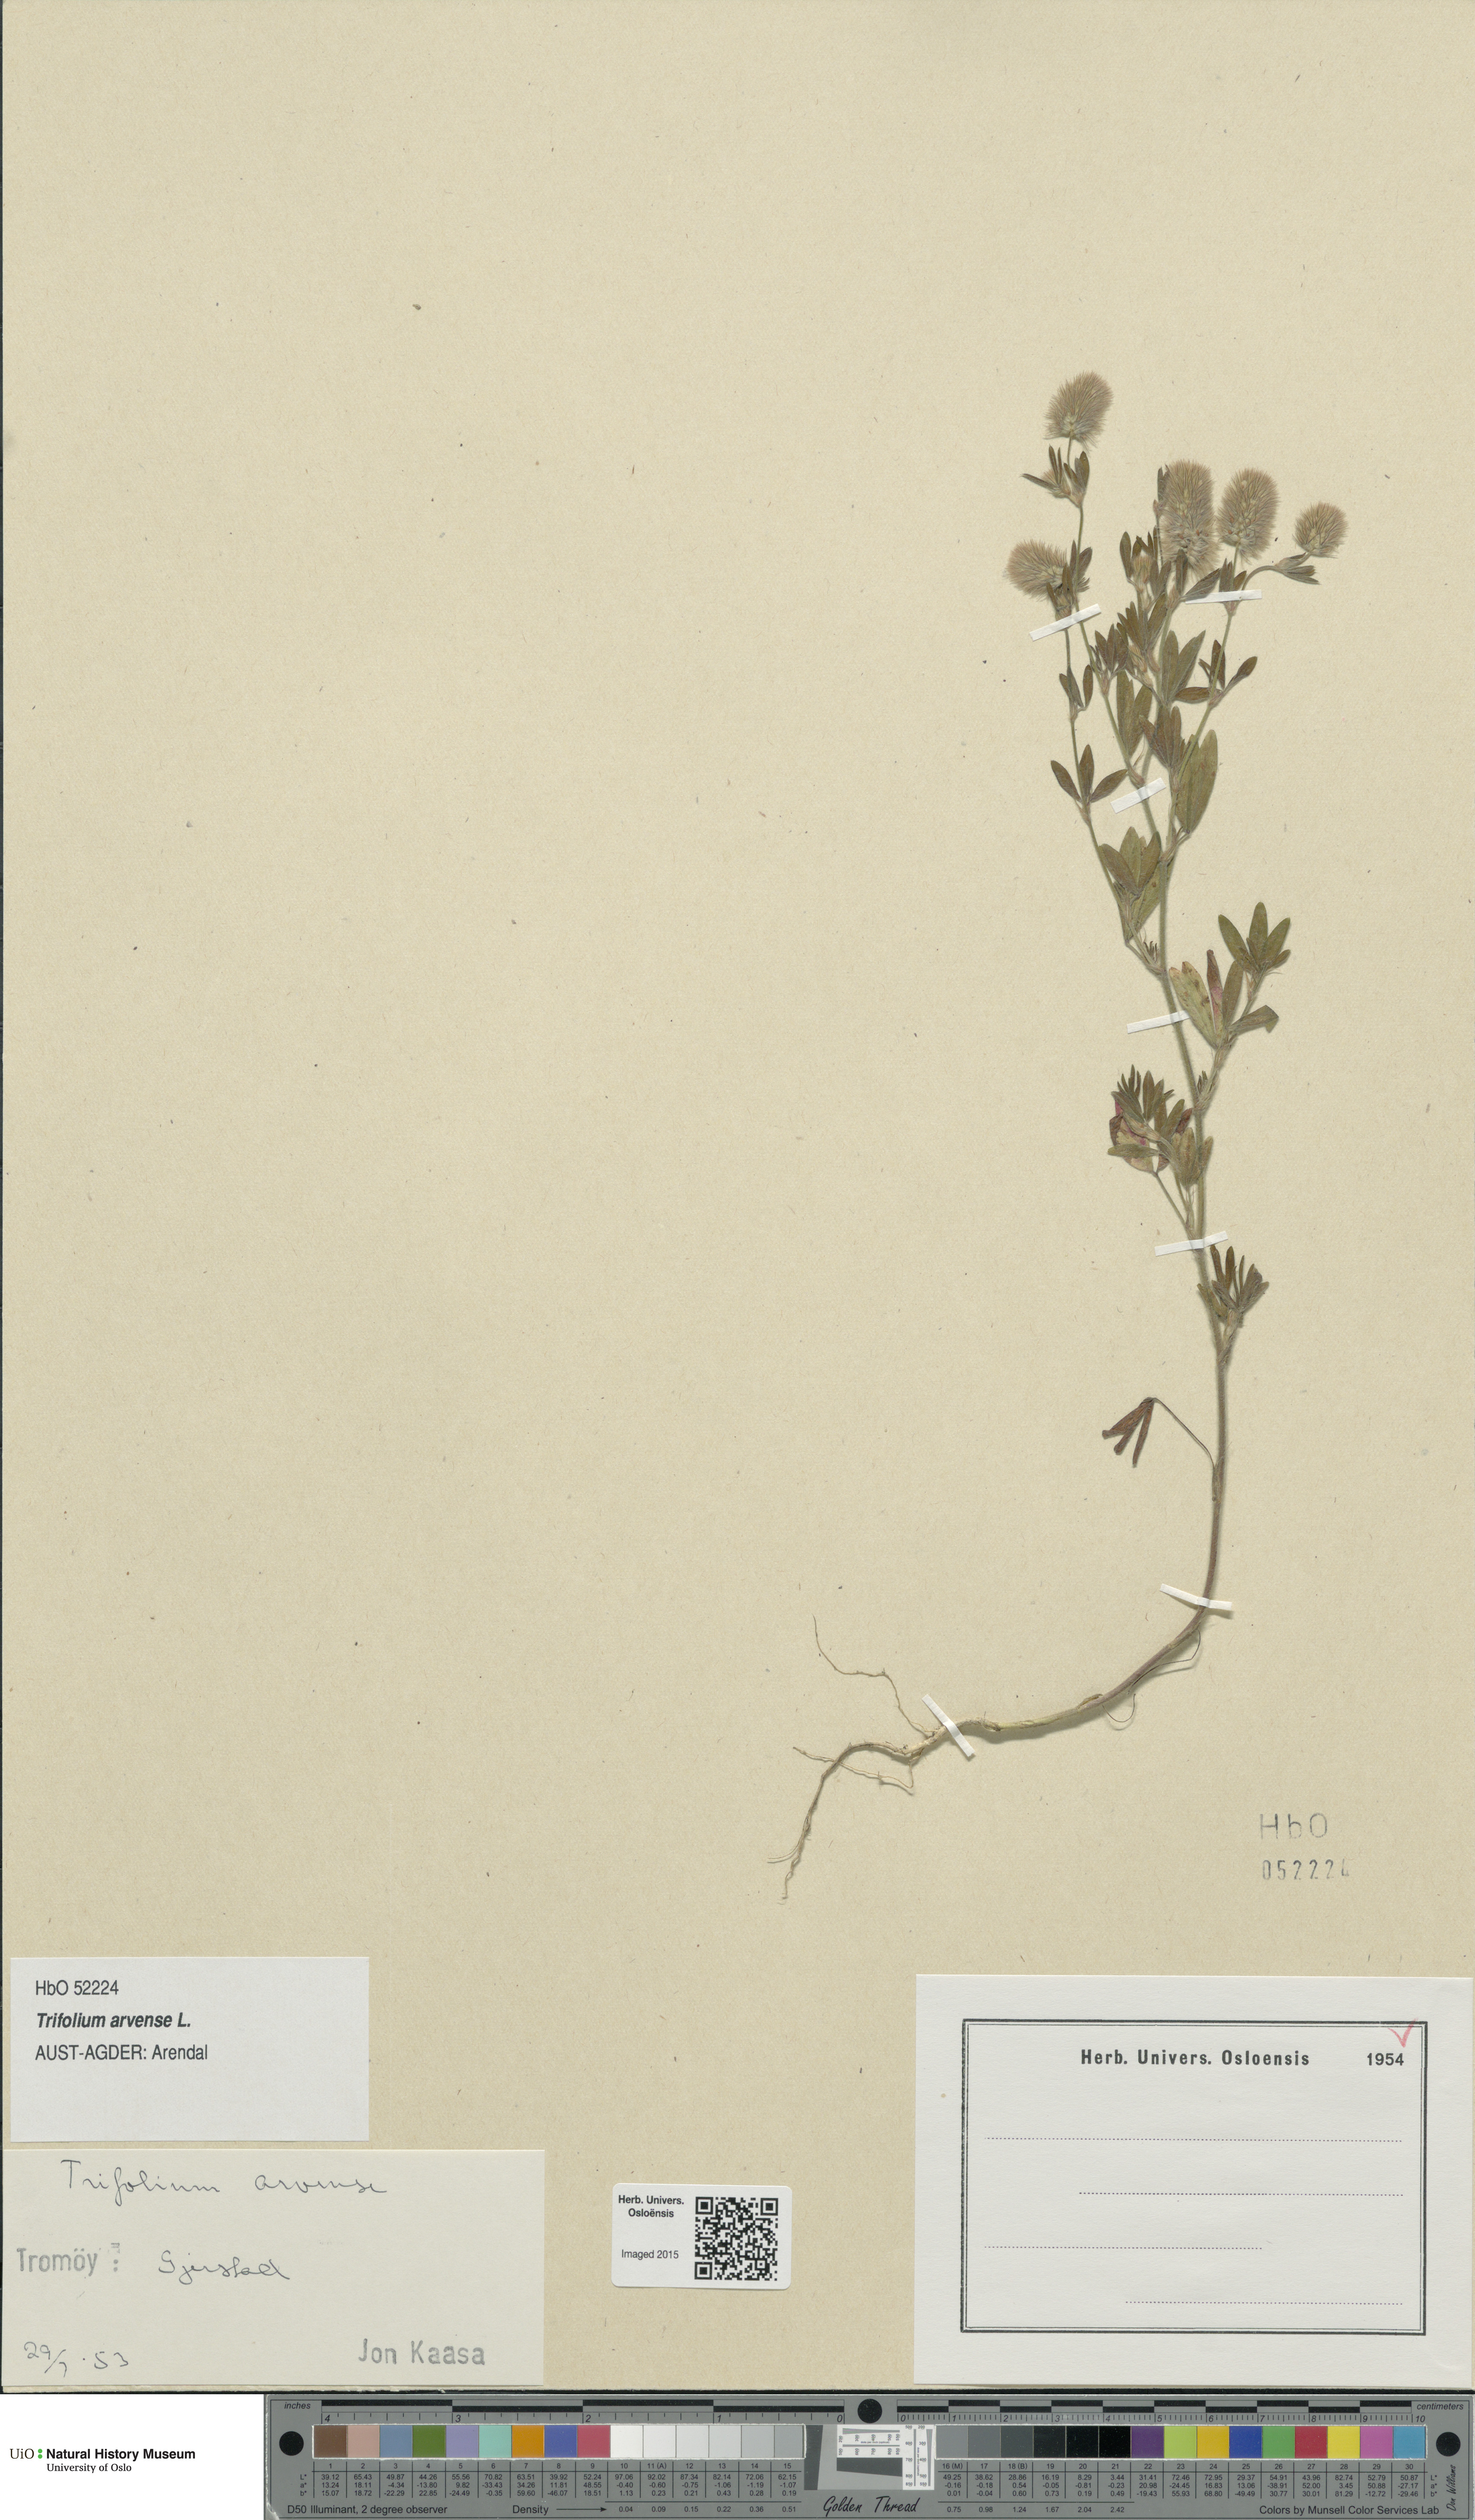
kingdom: Plantae
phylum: Tracheophyta
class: Magnoliopsida
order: Fabales
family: Fabaceae
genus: Trifolium
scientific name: Trifolium arvense
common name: Hare's-foot clover
